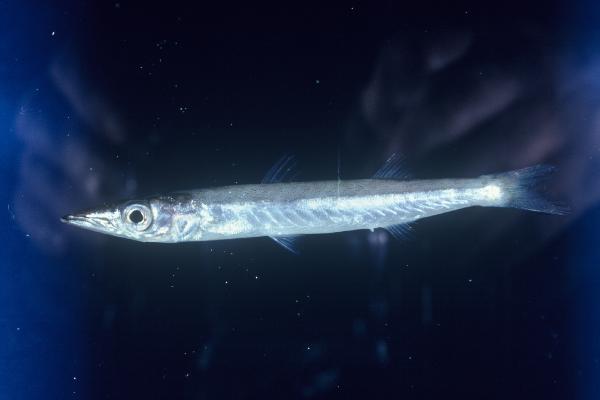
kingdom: Animalia
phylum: Chordata
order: Perciformes
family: Sphyraenidae
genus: Sphyraena
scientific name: Sphyraena acutipinnis
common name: Sharpfin barracuda
